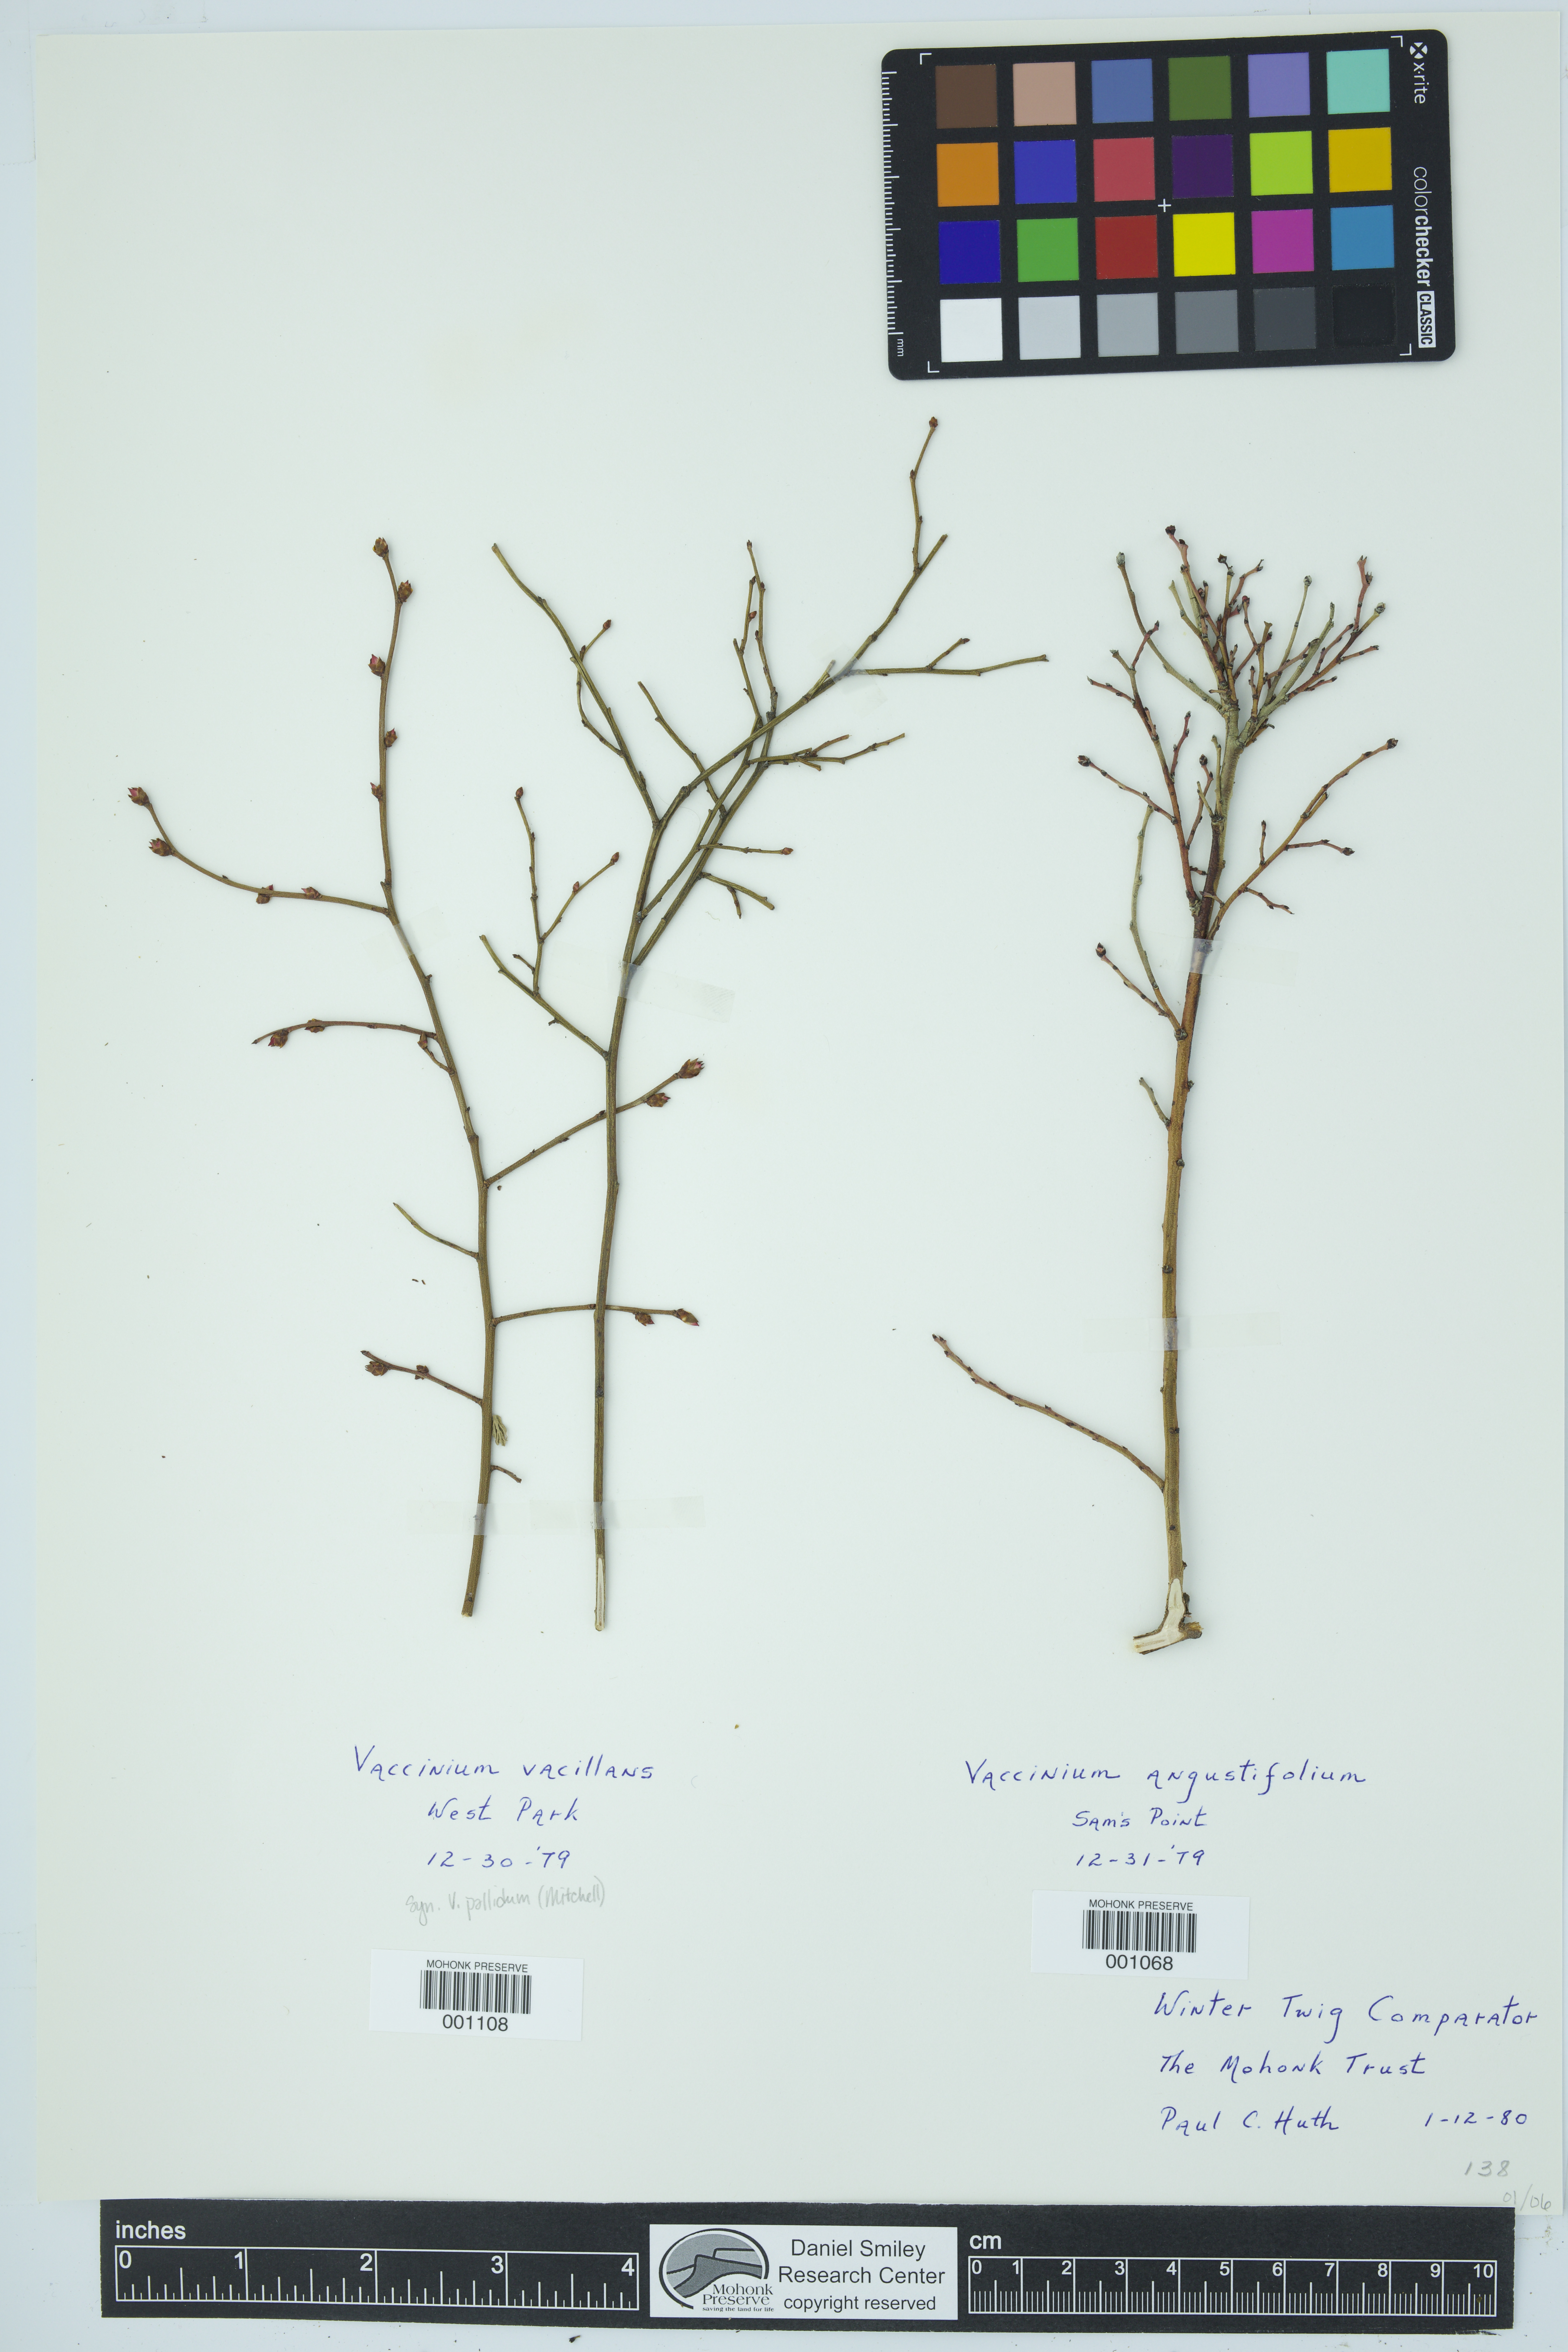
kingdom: Plantae
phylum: Tracheophyta
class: Magnoliopsida
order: Ericales
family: Ericaceae
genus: Vaccinium
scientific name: Vaccinium angustifolium
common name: Early lowbush blueberry
